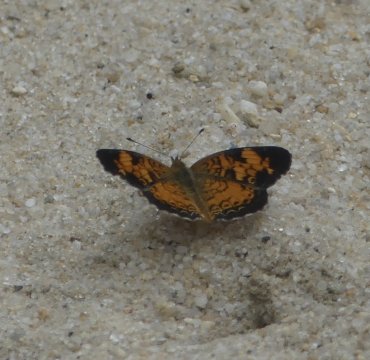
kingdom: Animalia
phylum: Arthropoda
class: Insecta
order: Lepidoptera
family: Nymphalidae
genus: Phyciodes
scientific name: Phyciodes tharos
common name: Pearl Crescent
